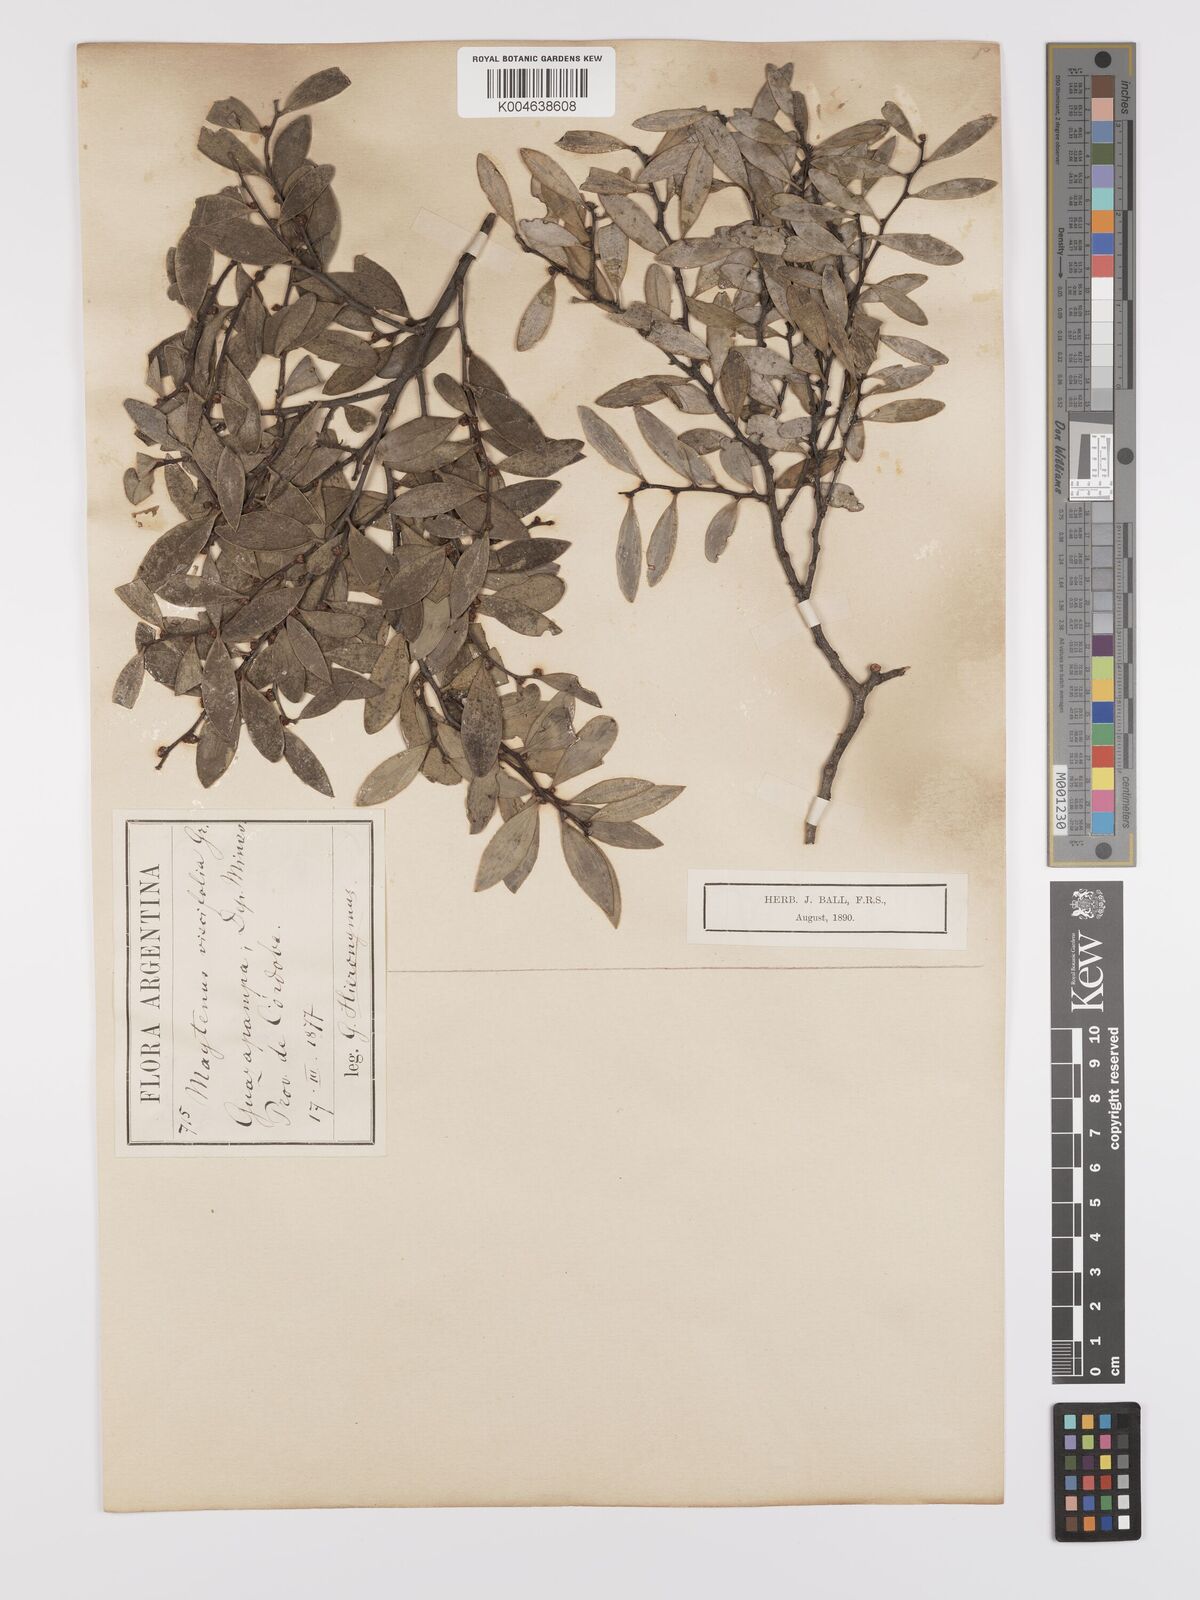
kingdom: Plantae
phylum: Tracheophyta
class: Magnoliopsida
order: Celastrales
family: Celastraceae
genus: Tricerma
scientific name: Tricerma viscifolium
